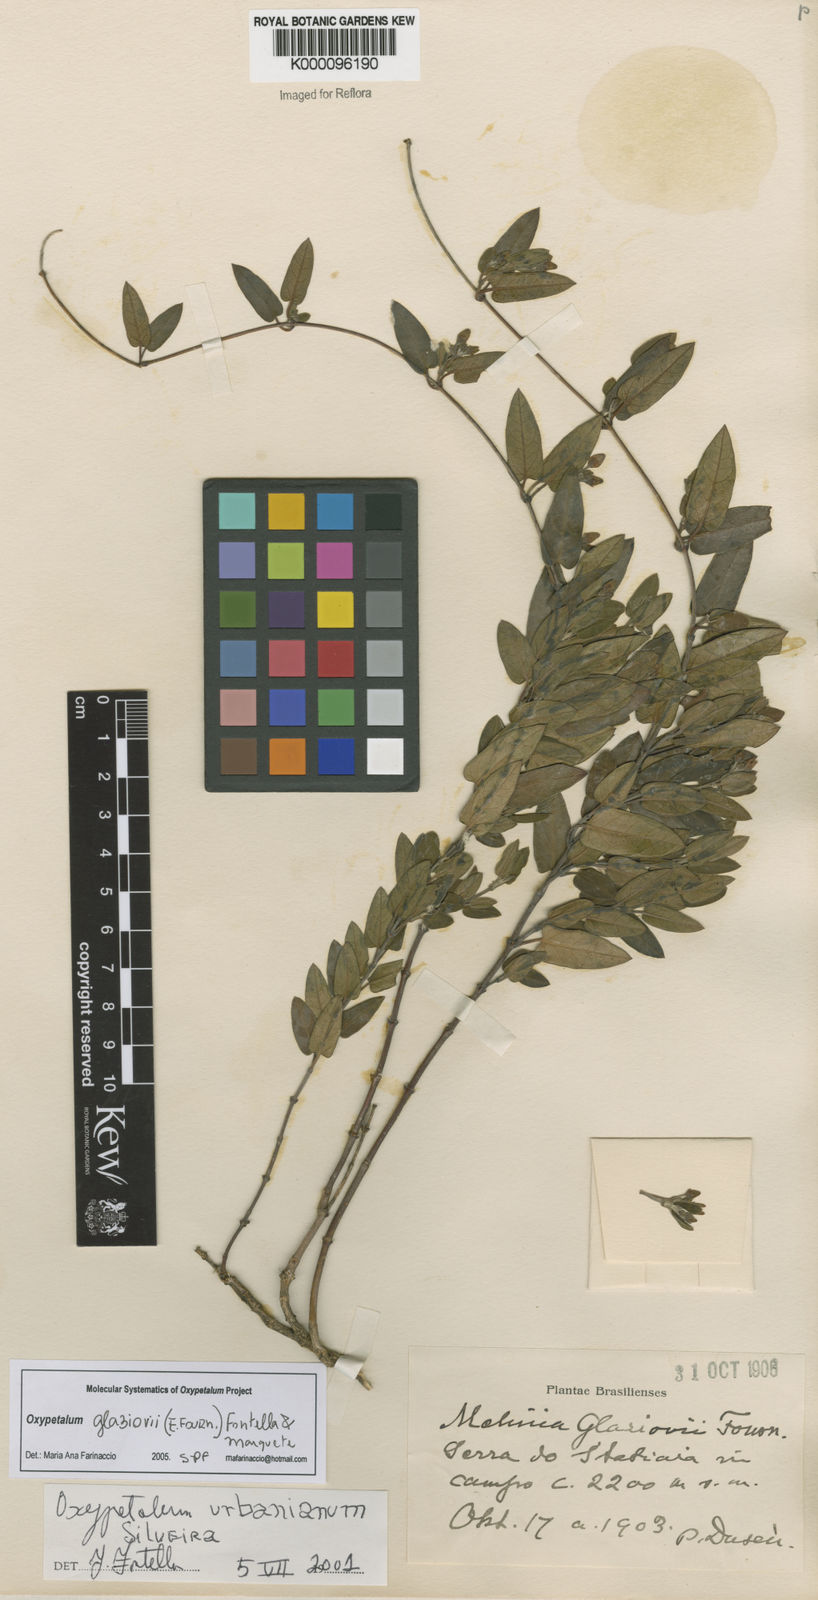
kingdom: Plantae
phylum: Tracheophyta
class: Magnoliopsida
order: Gentianales
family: Apocynaceae
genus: Oxypetalum
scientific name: Oxypetalum glaziovii
